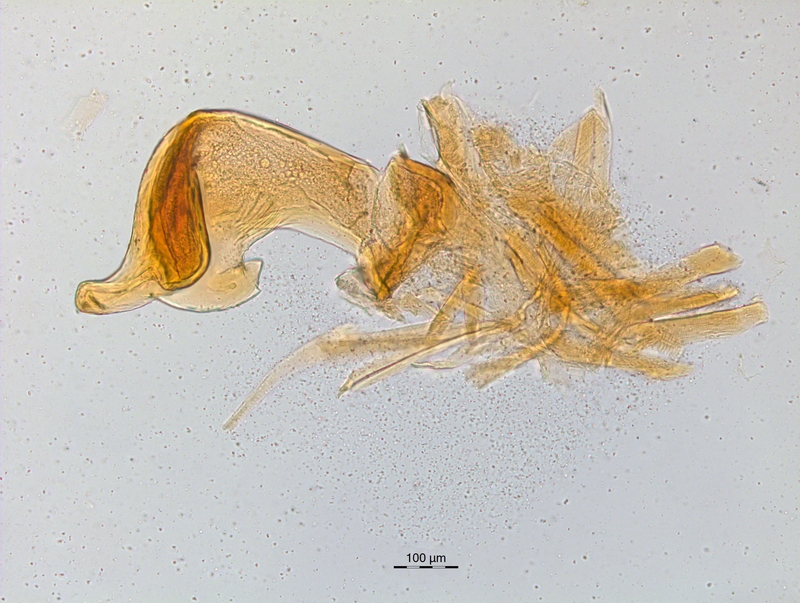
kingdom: Animalia
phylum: Arthropoda
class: Diplopoda
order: Chordeumatida
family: Craspedosomatidae
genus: Craspedosoma
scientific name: Craspedosoma simile
